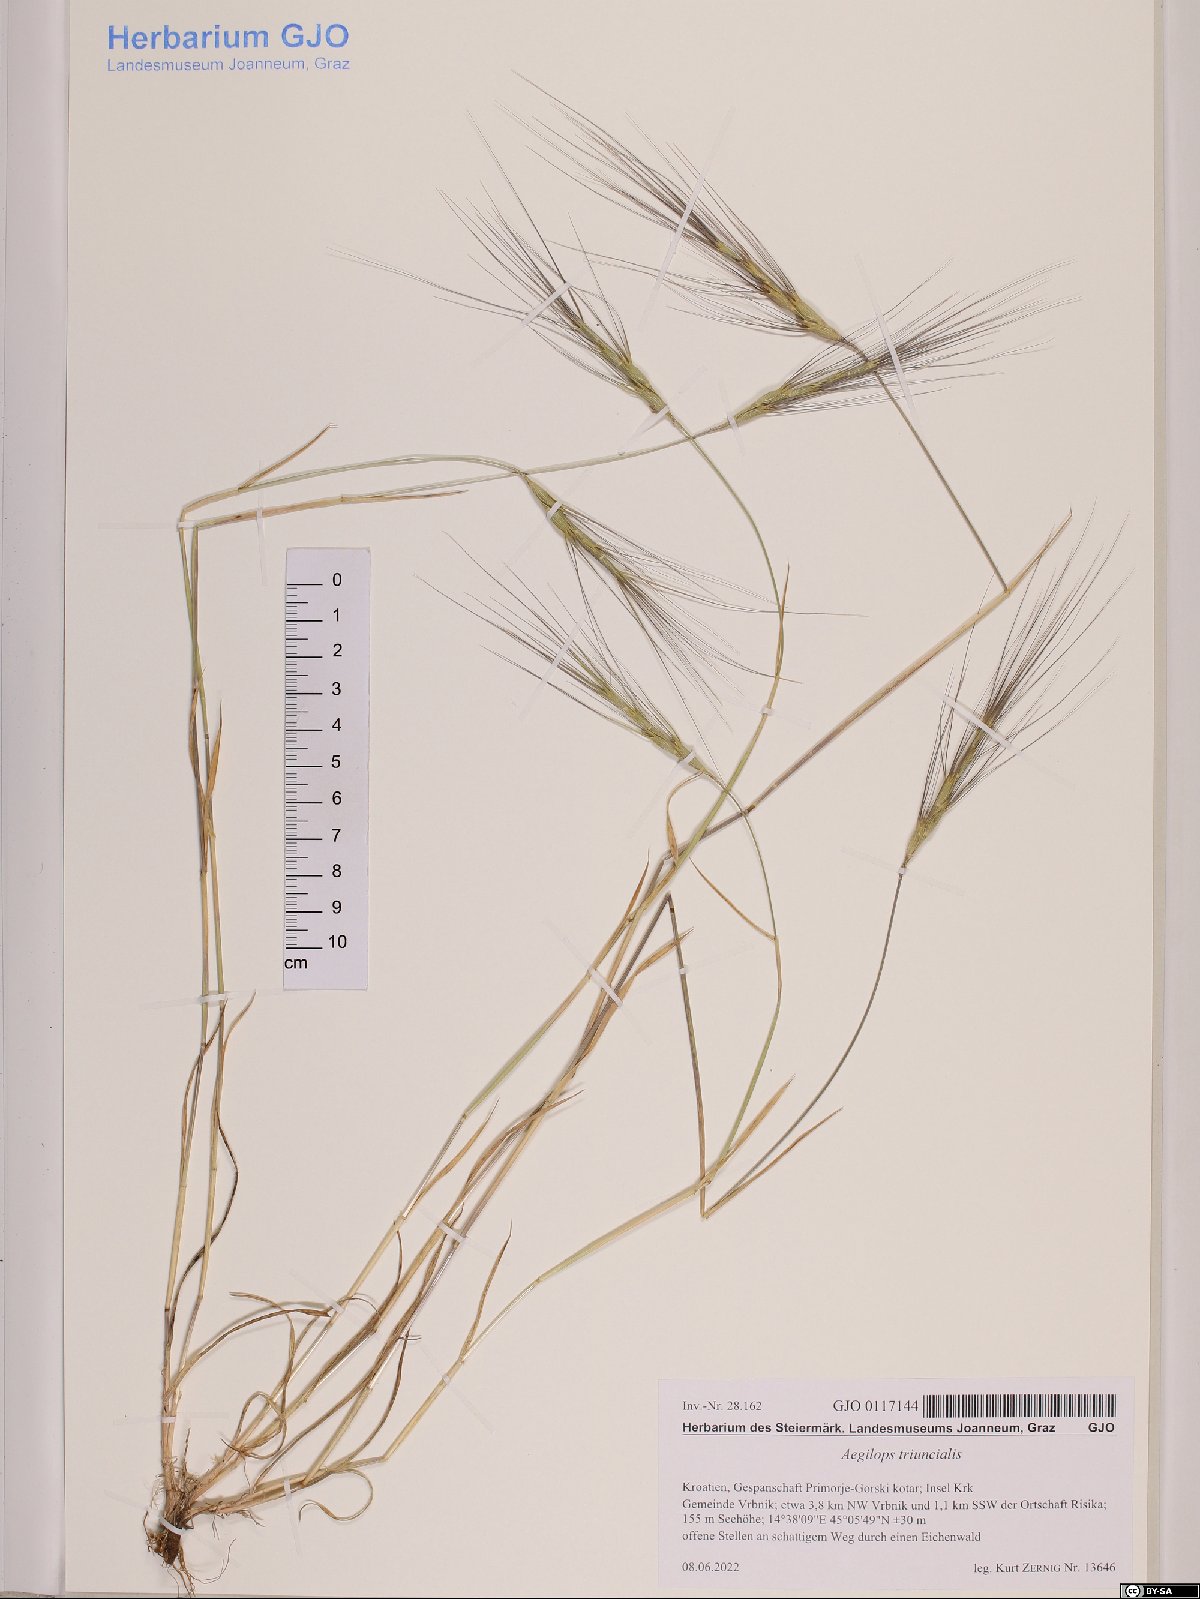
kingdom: Plantae
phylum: Tracheophyta
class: Liliopsida
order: Poales
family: Poaceae
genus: Aegilops
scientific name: Aegilops triuncialis
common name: Barb goat grass
